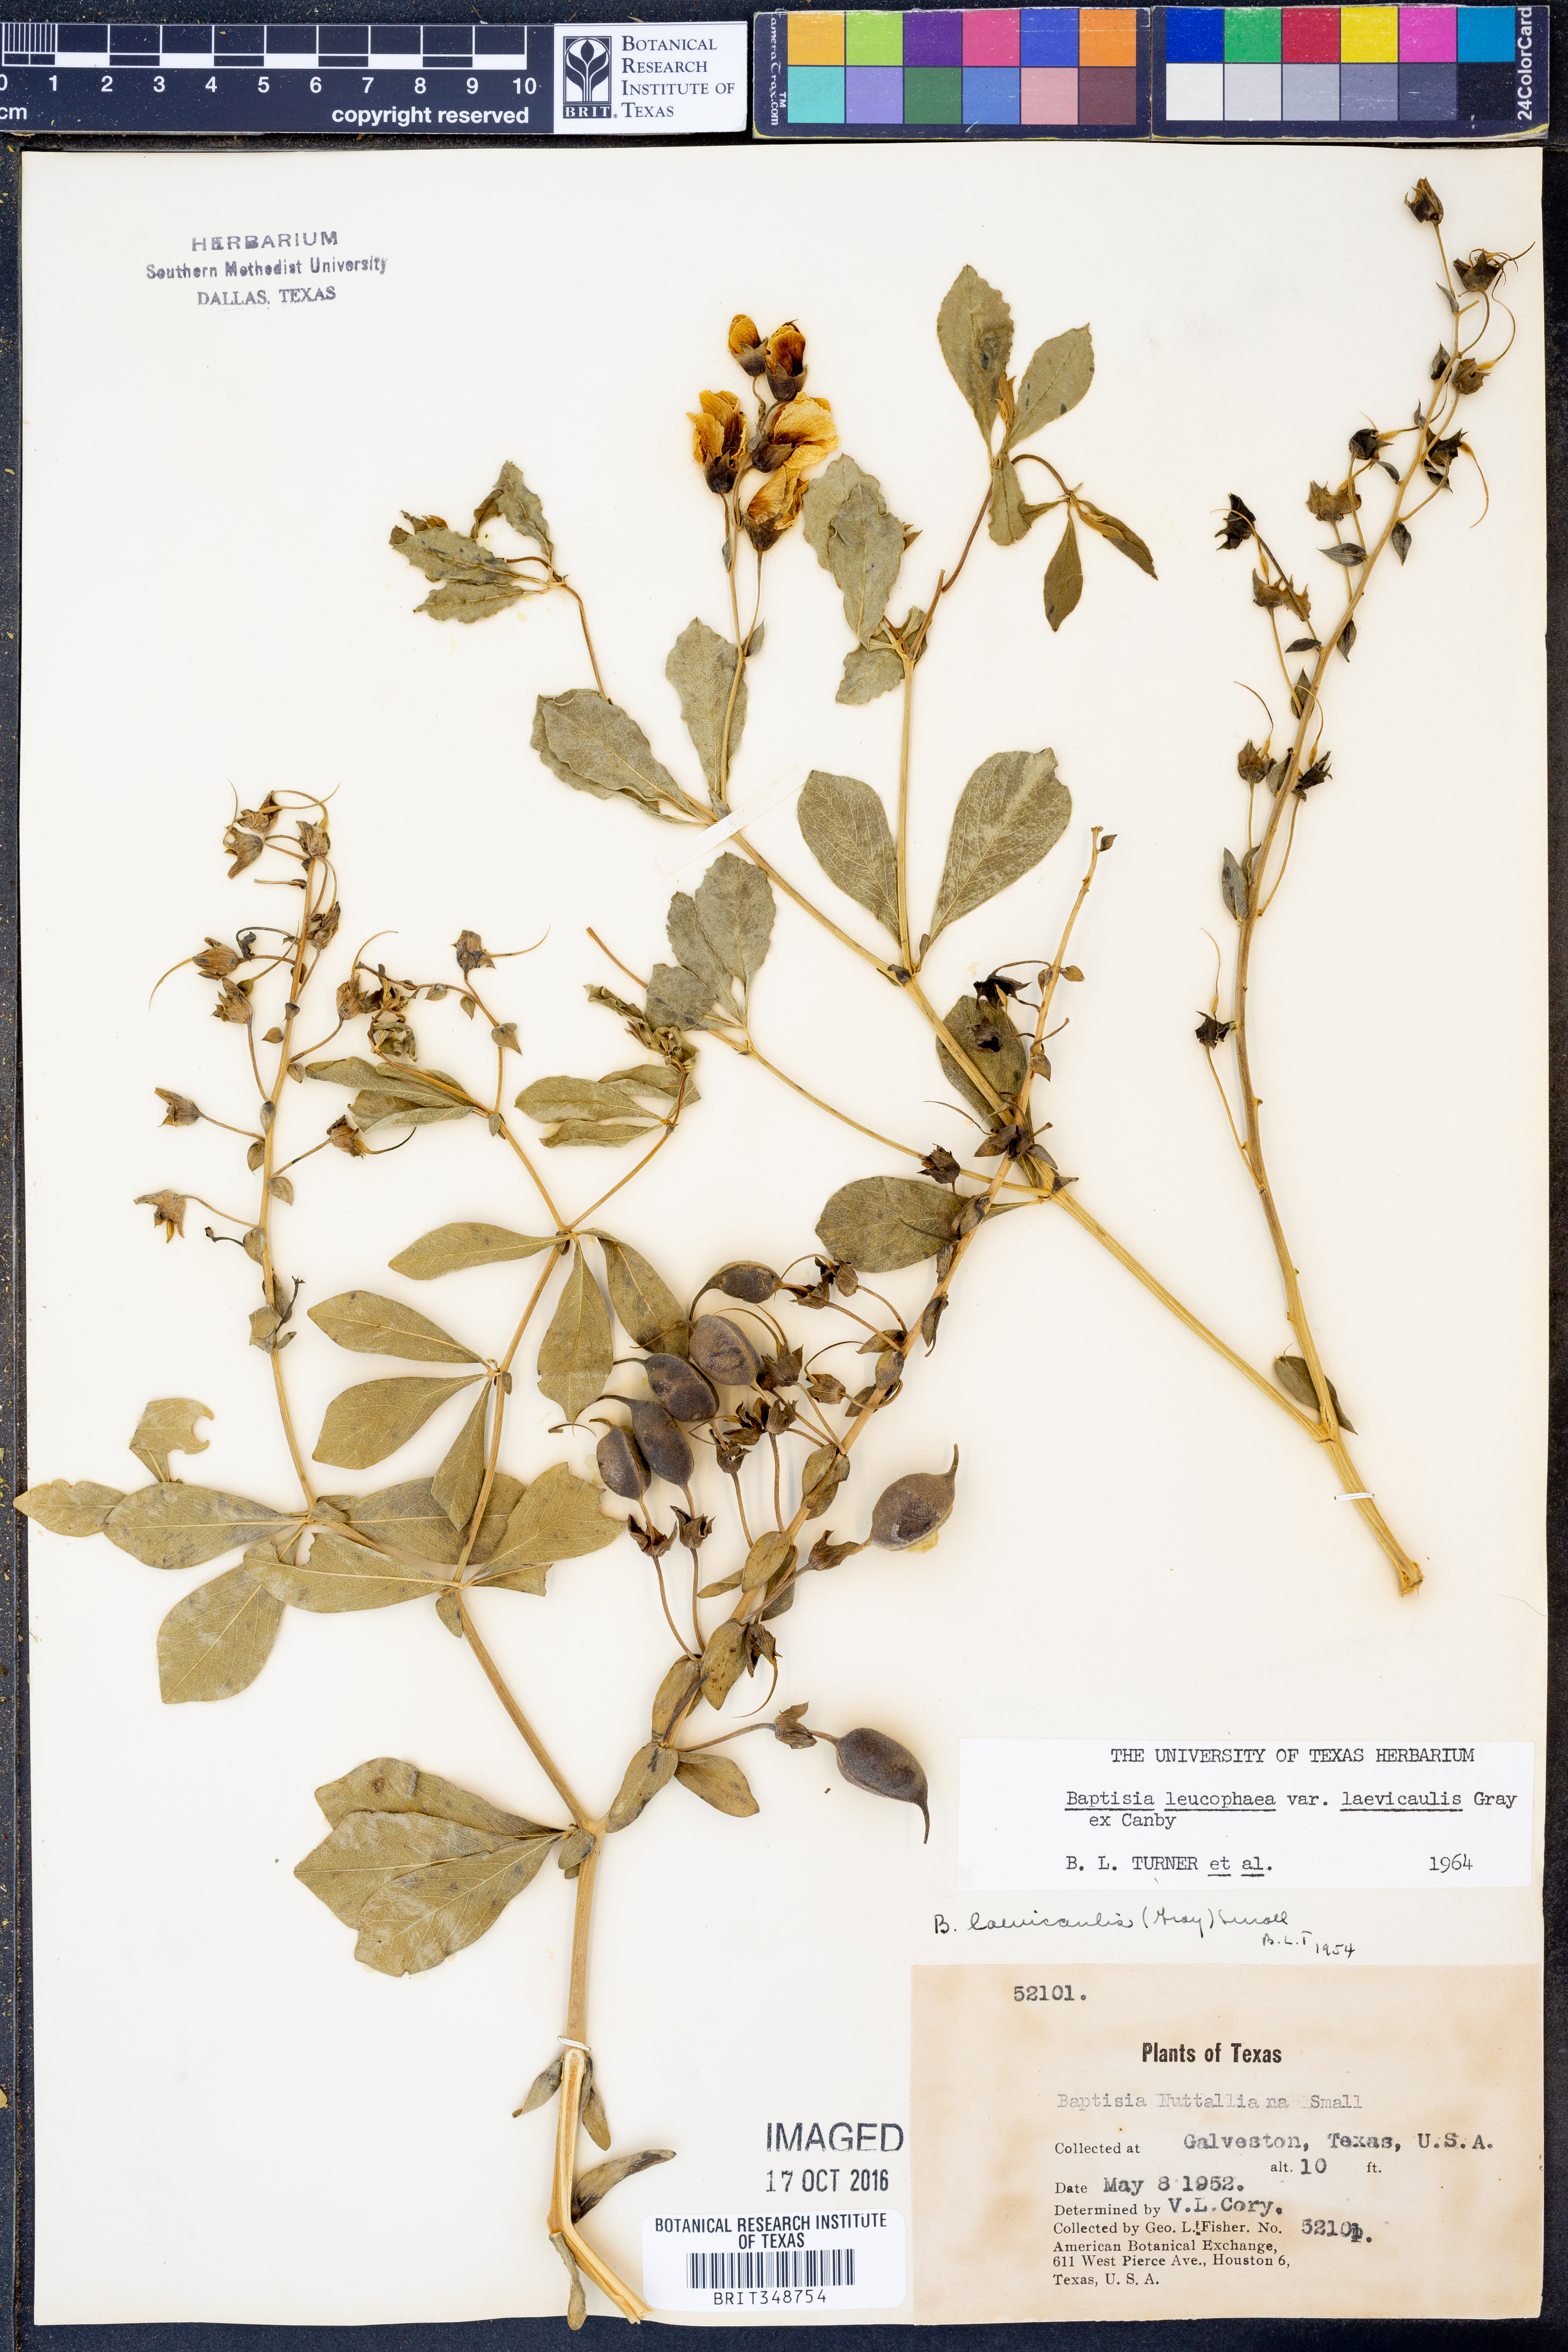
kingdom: Plantae
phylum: Tracheophyta
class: Magnoliopsida
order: Fabales
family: Fabaceae
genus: Baptisia
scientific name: Baptisia bracteata
